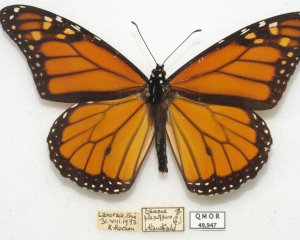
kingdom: Animalia
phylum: Arthropoda
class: Insecta
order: Lepidoptera
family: Nymphalidae
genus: Danaus
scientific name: Danaus plexippus
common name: Monarch
